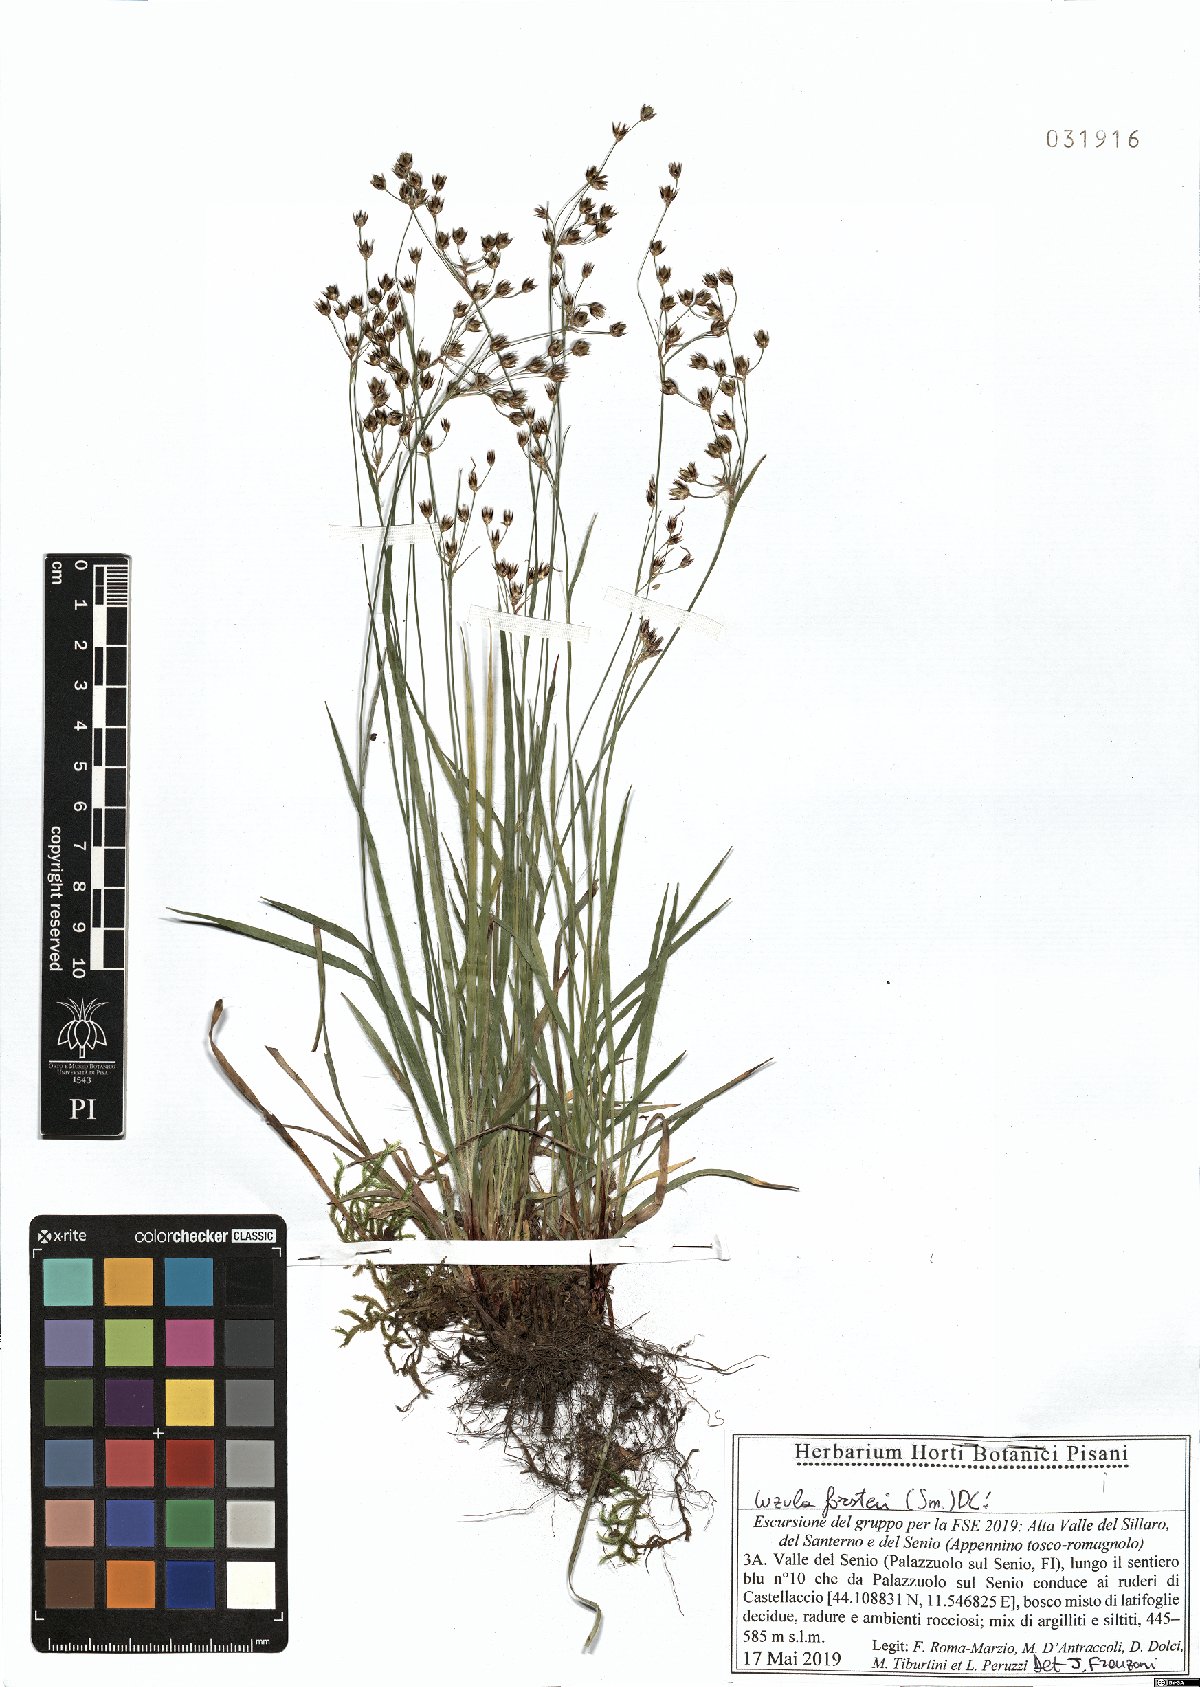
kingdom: Plantae
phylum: Tracheophyta
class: Liliopsida
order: Poales
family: Juncaceae
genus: Luzula
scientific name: Luzula forsteri
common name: Southern wood-rush
